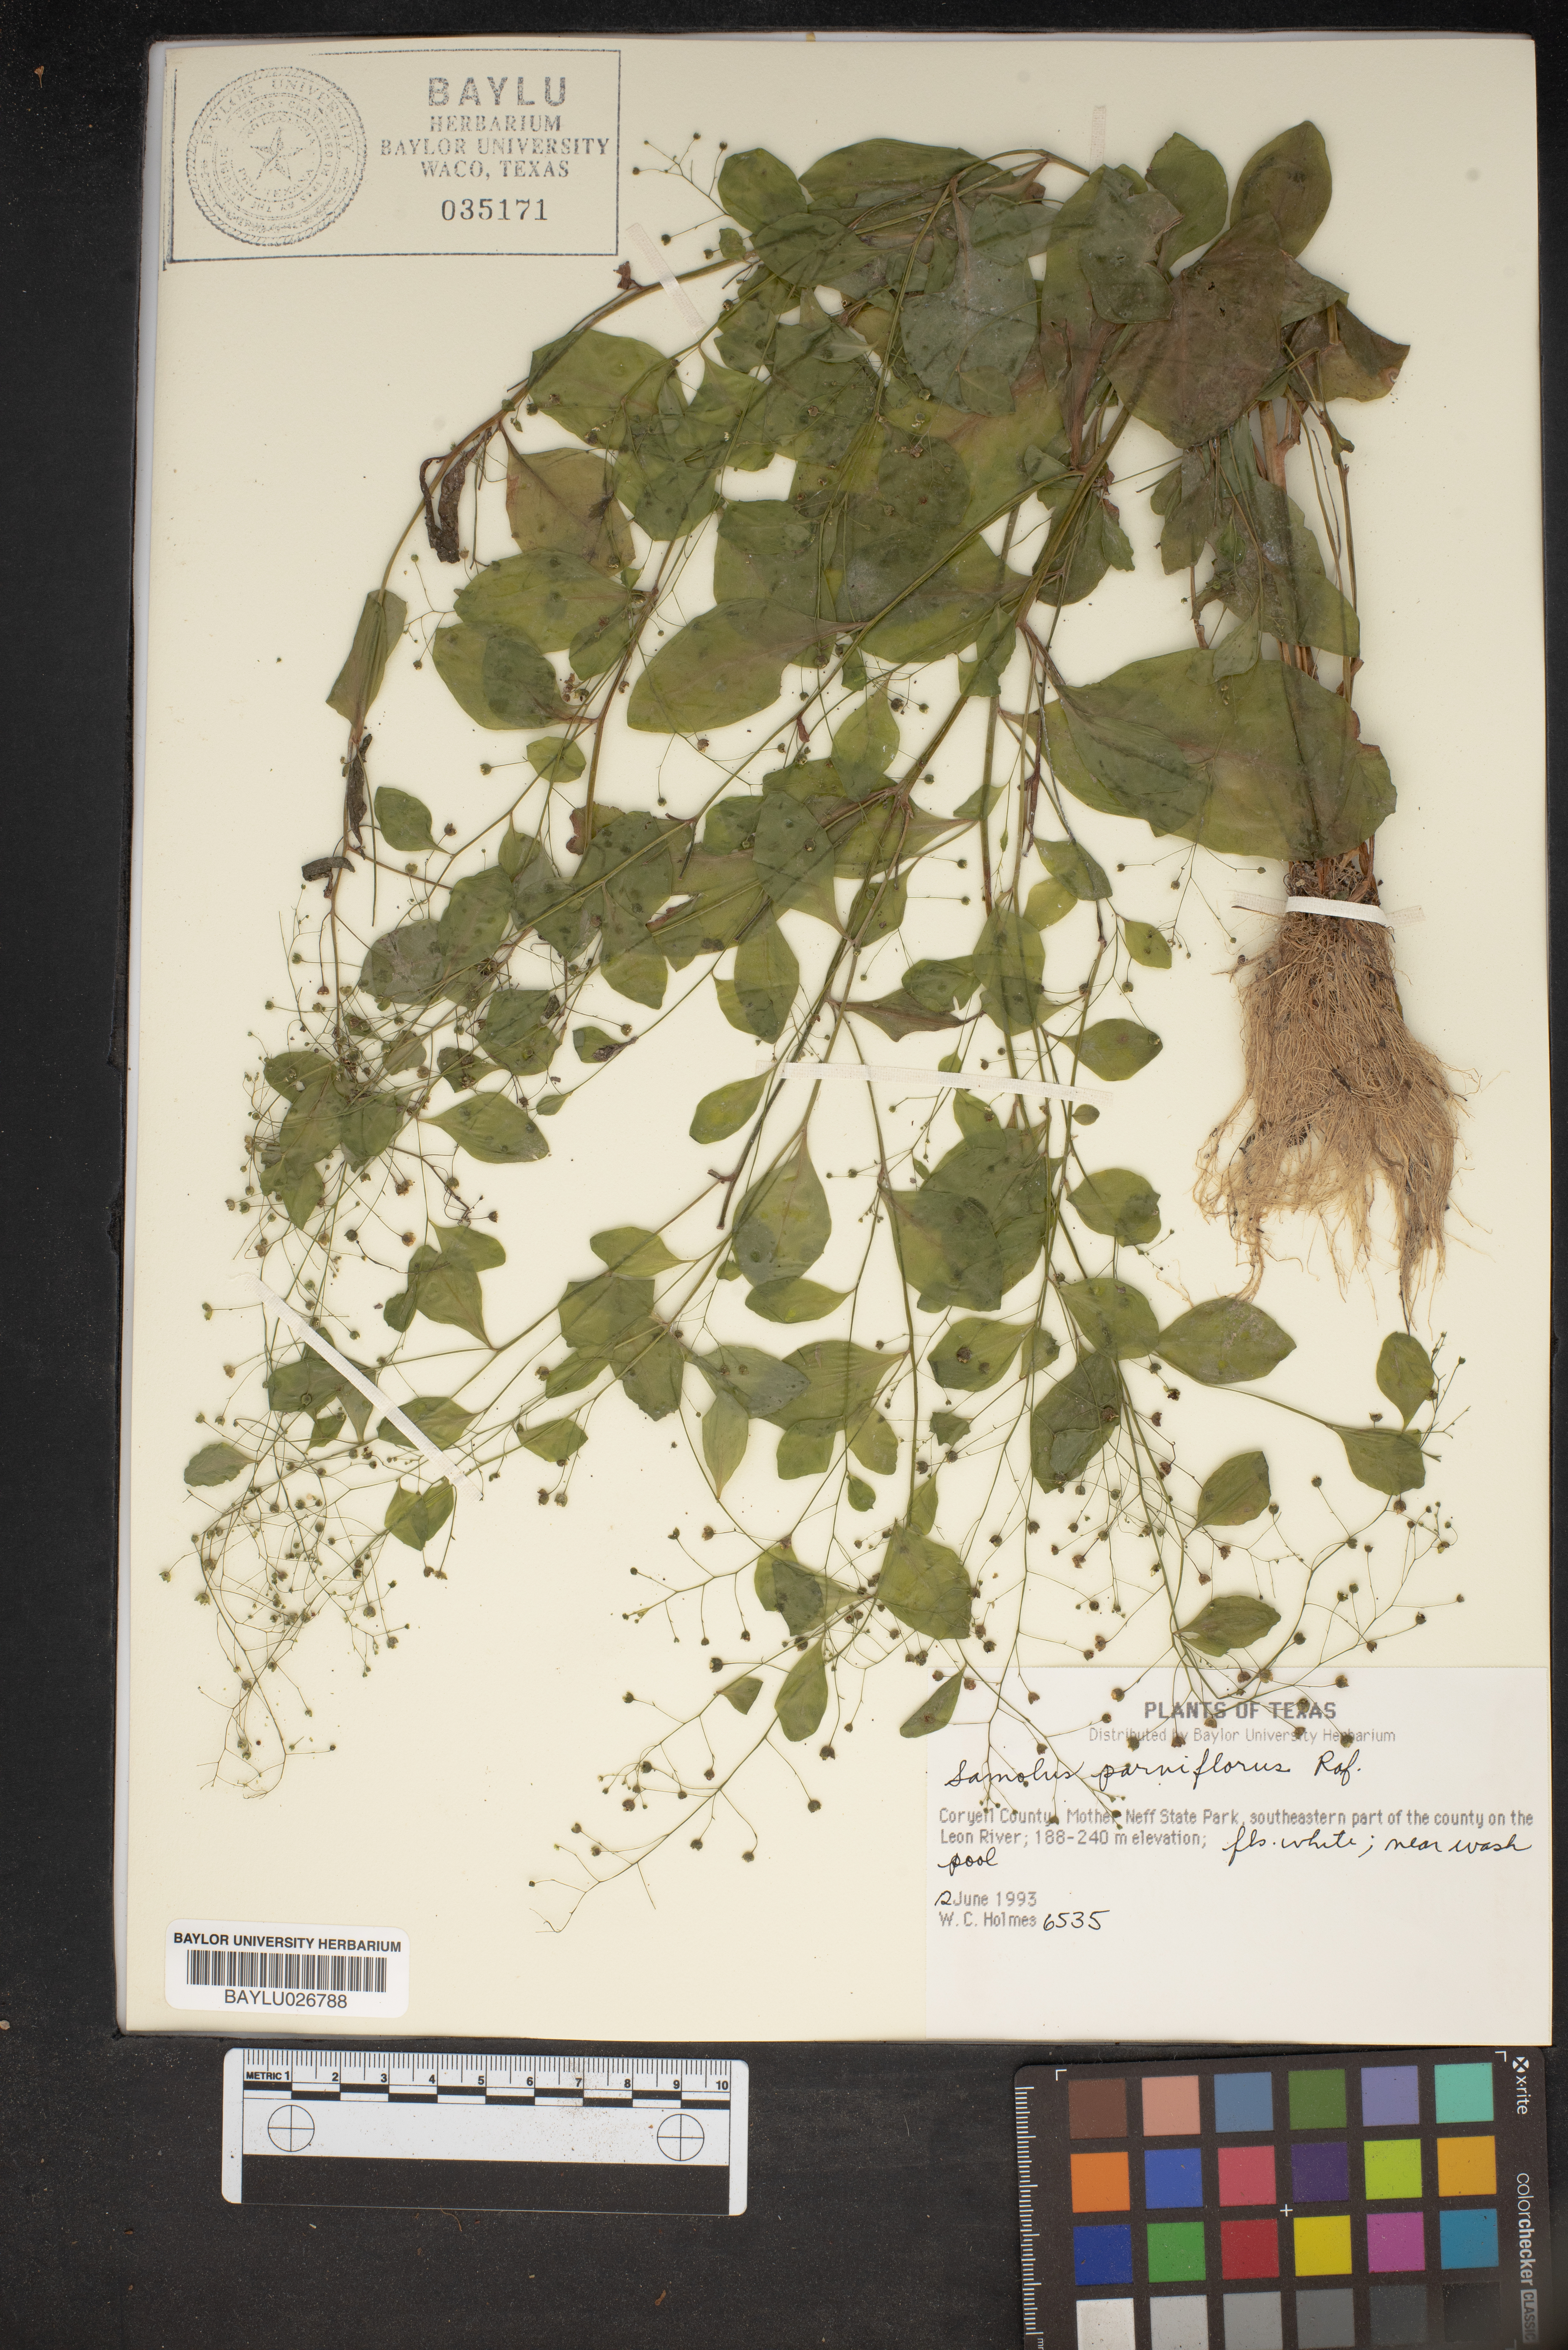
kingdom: Plantae
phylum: Tracheophyta
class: Magnoliopsida
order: Ericales
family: Primulaceae
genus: Samolus
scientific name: Samolus parviflorus
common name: False water pimpernel
